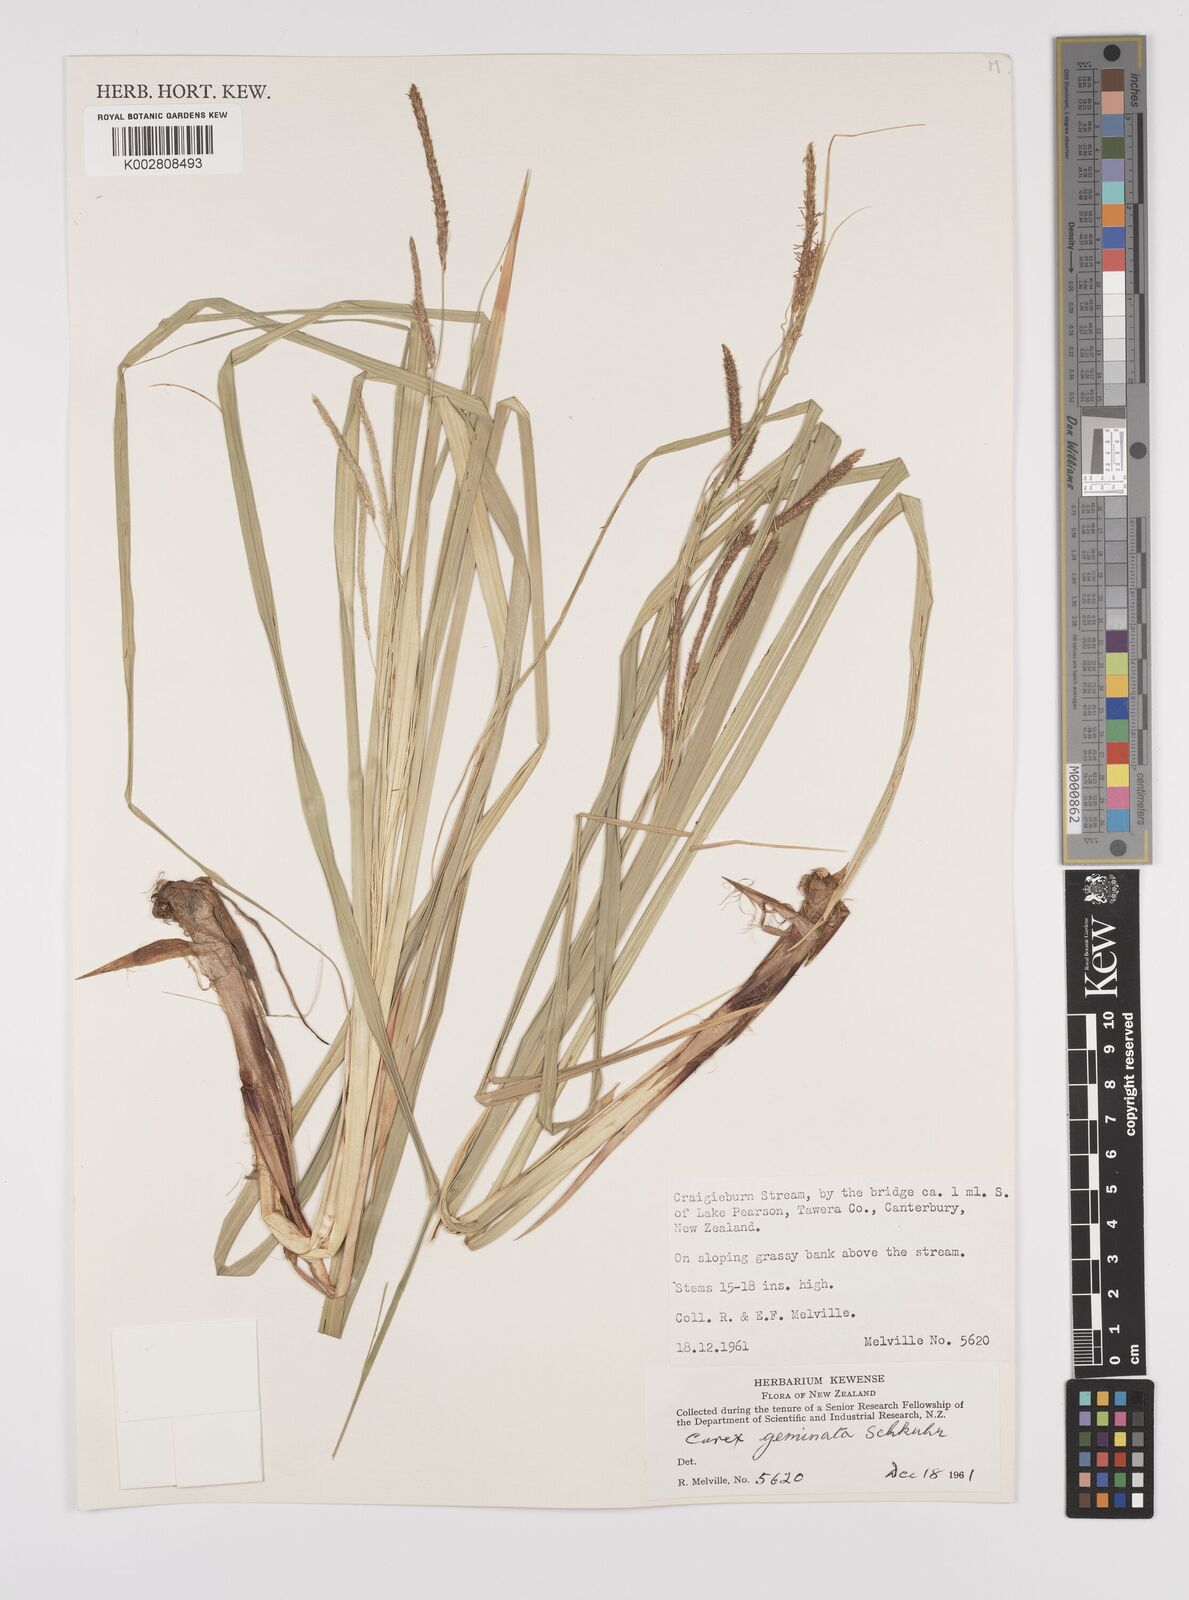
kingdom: Plantae
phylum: Tracheophyta
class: Liliopsida
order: Poales
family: Cyperaceae
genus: Carex
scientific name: Carex geminata
